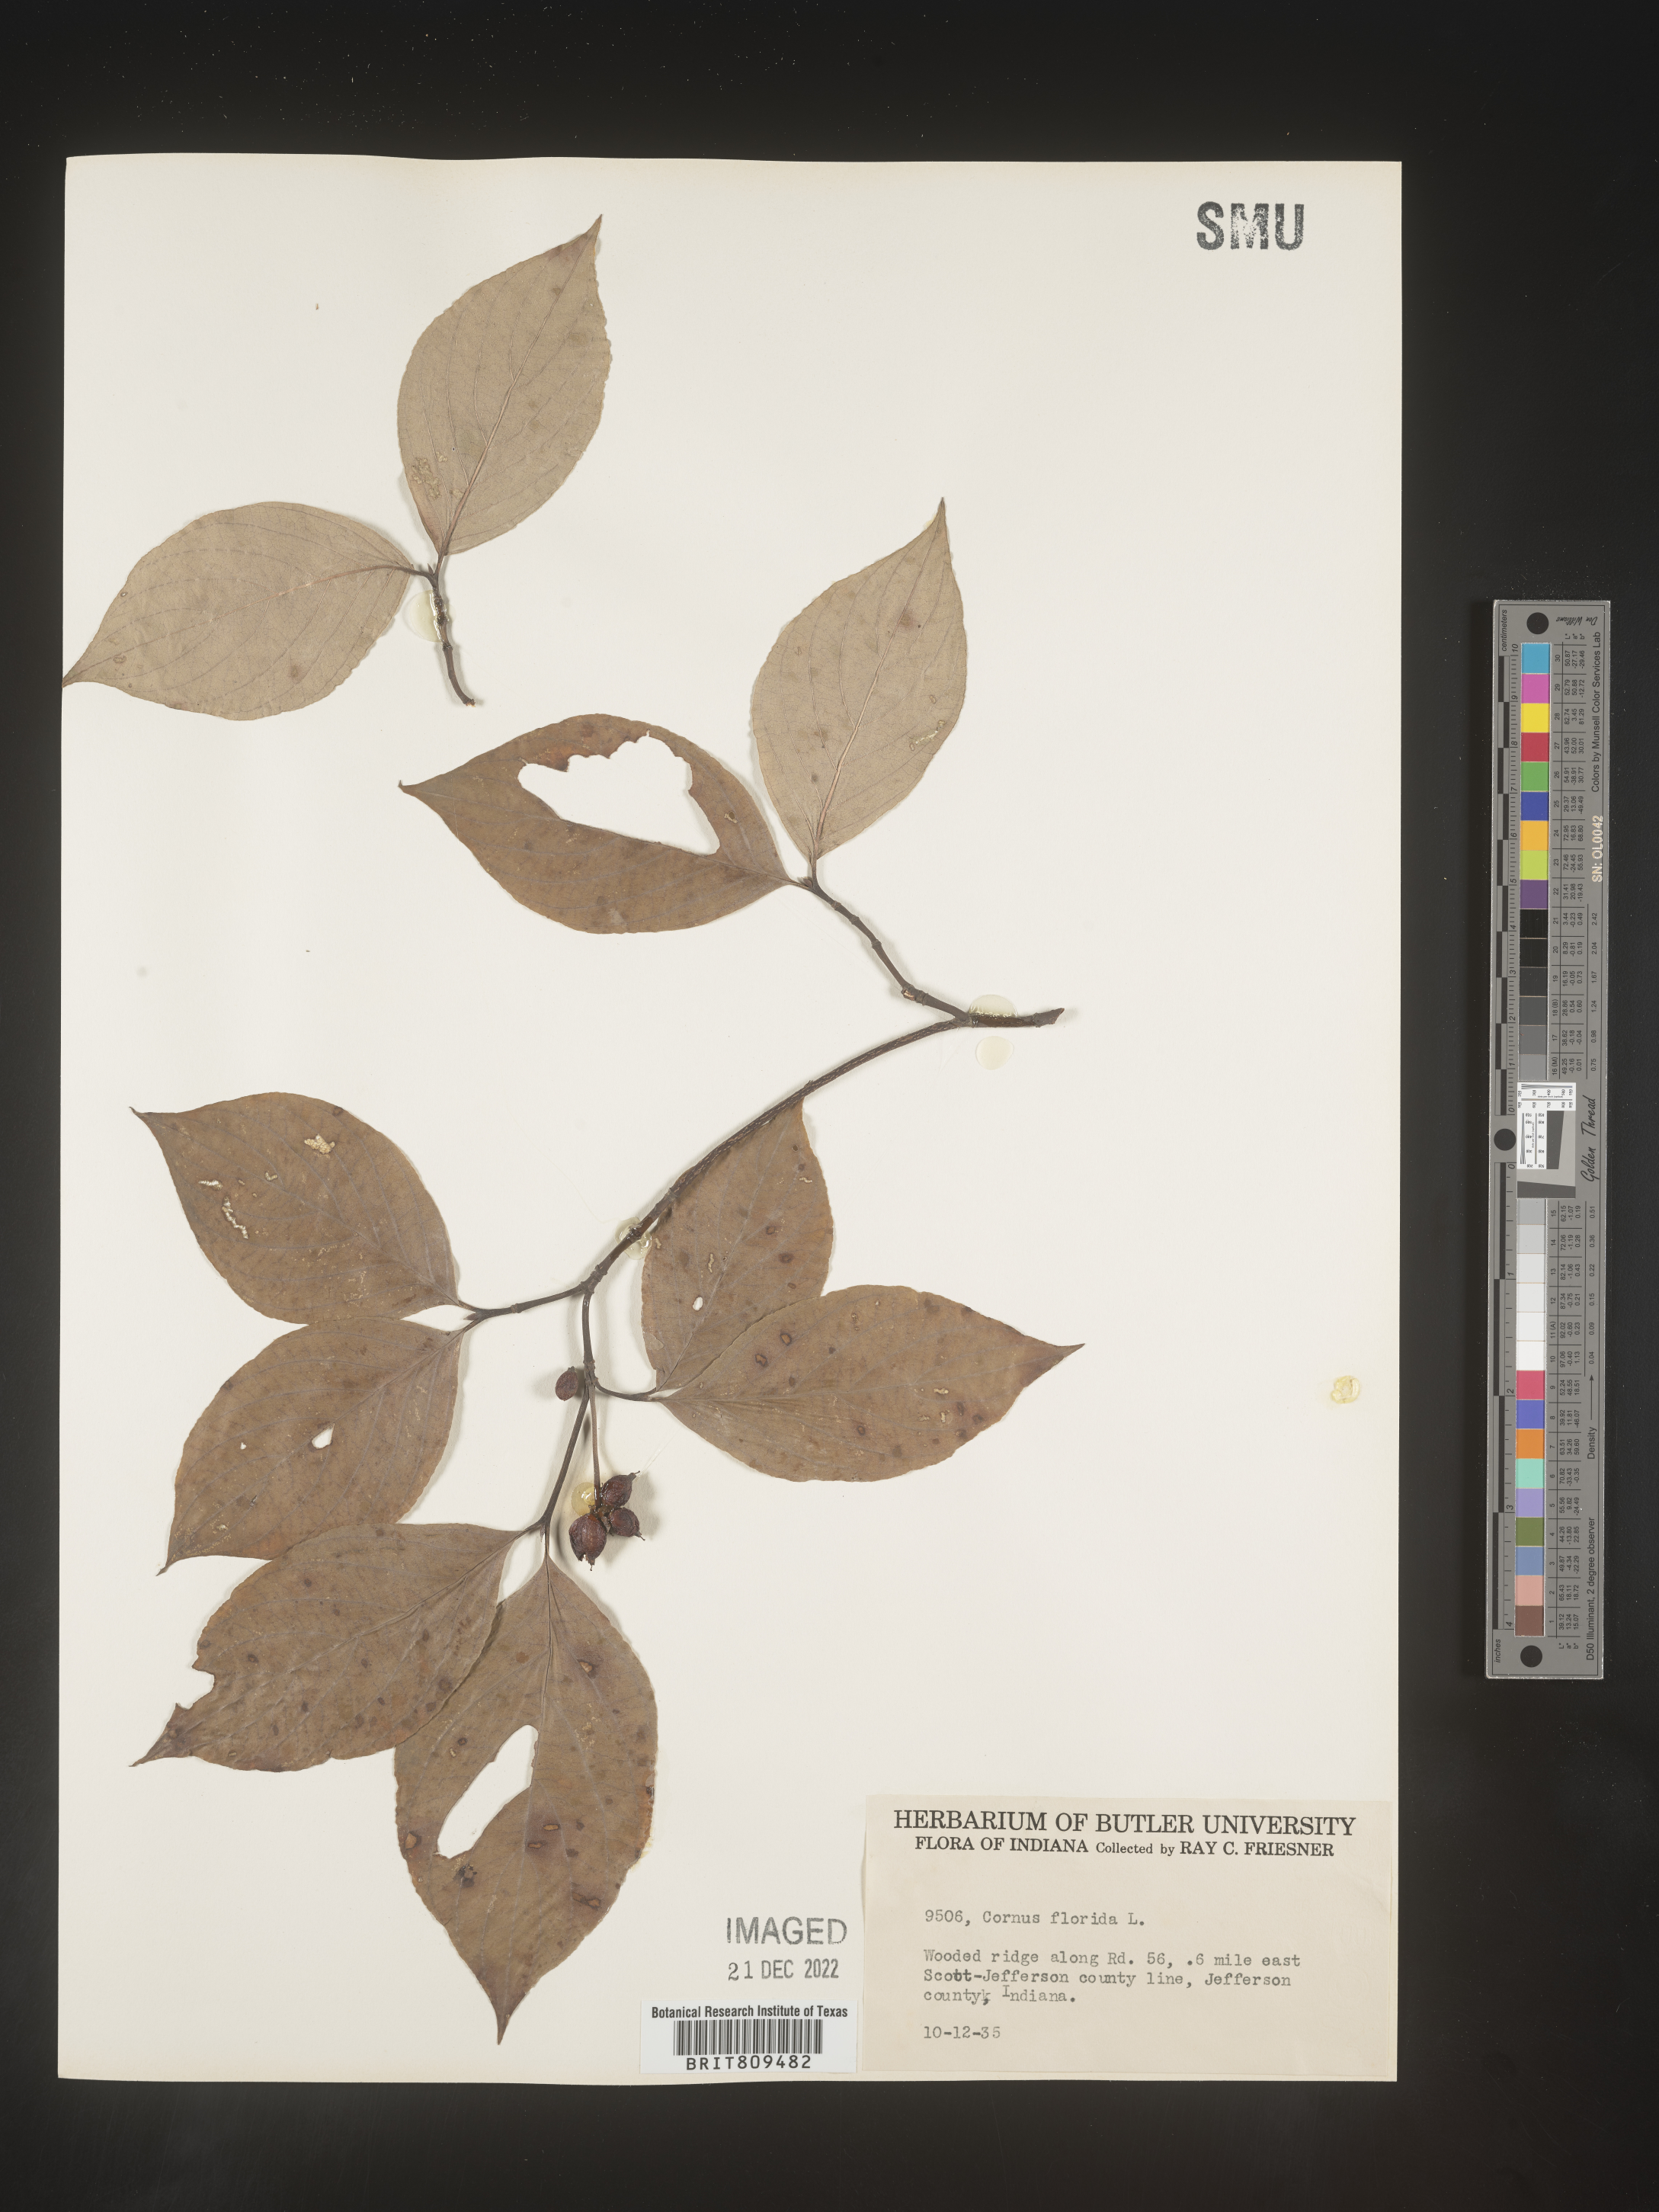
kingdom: Plantae
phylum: Tracheophyta
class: Magnoliopsida
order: Cornales
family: Cornaceae
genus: Cornus
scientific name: Cornus florida
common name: Flowering dogwood
